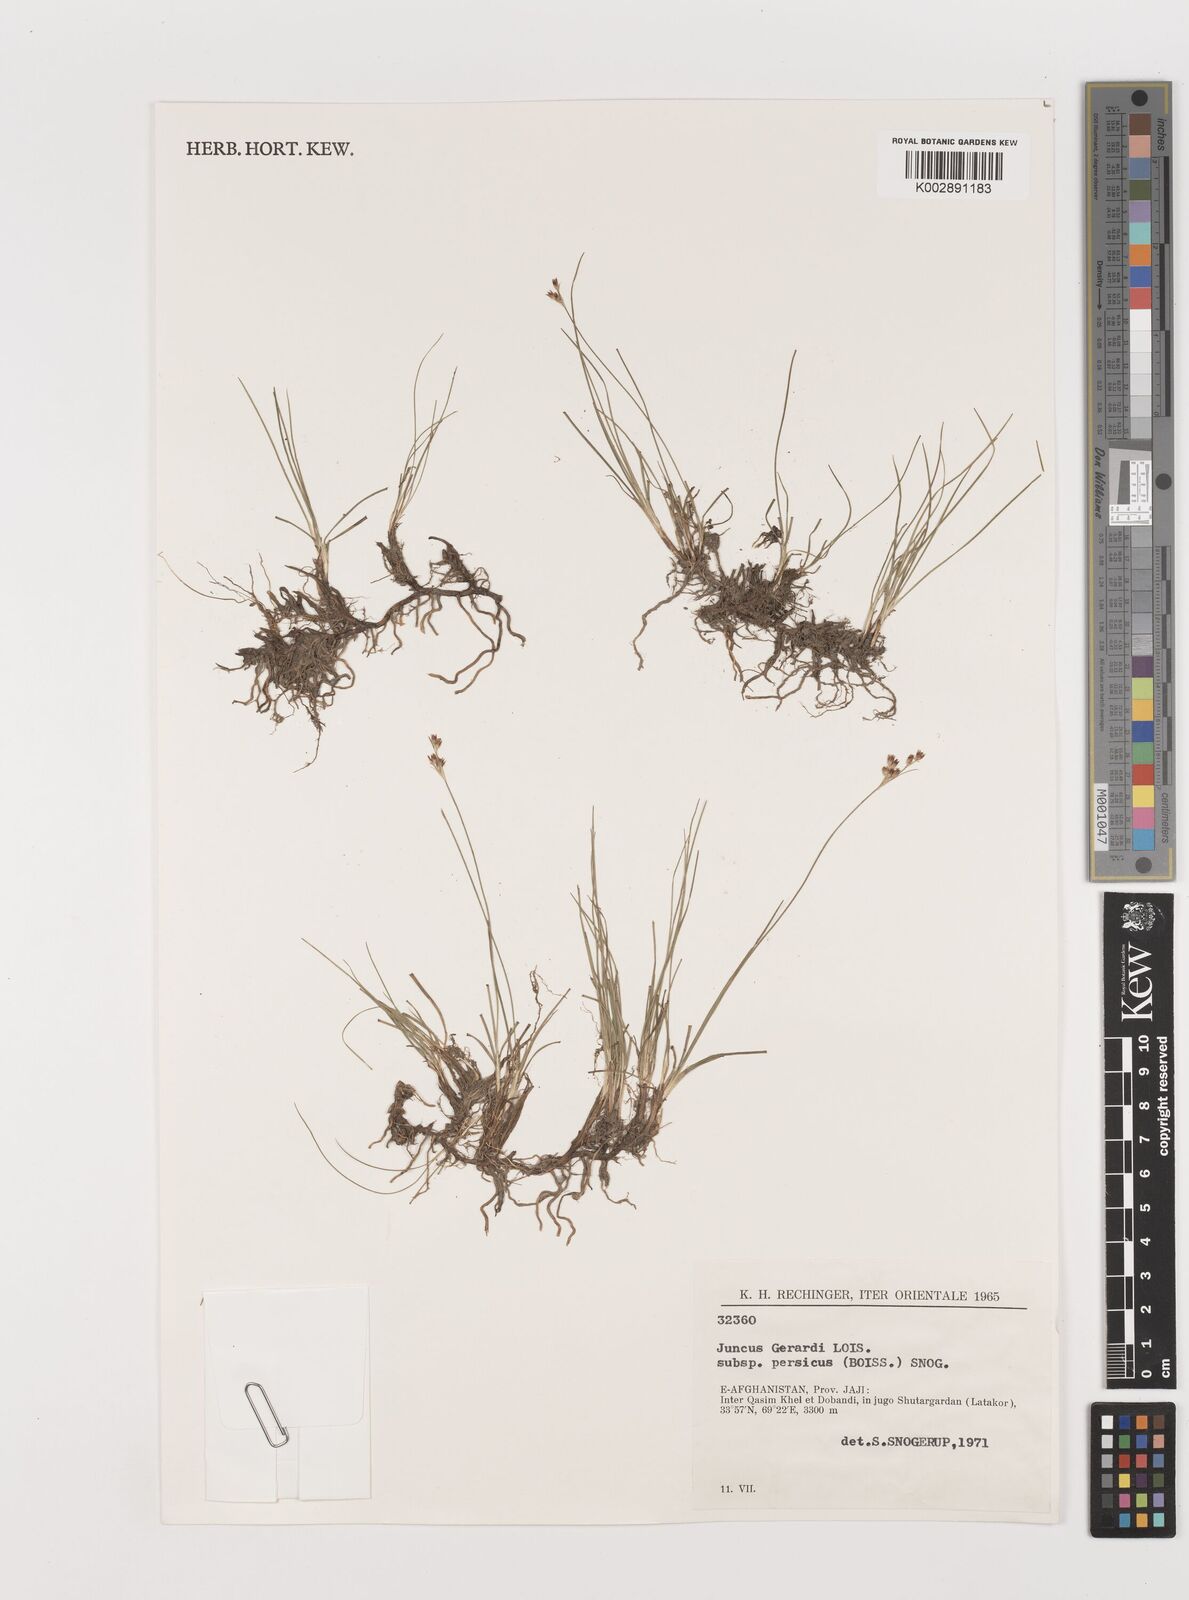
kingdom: Plantae
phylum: Tracheophyta
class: Liliopsida
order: Poales
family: Juncaceae
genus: Juncus
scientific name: Juncus persicus
